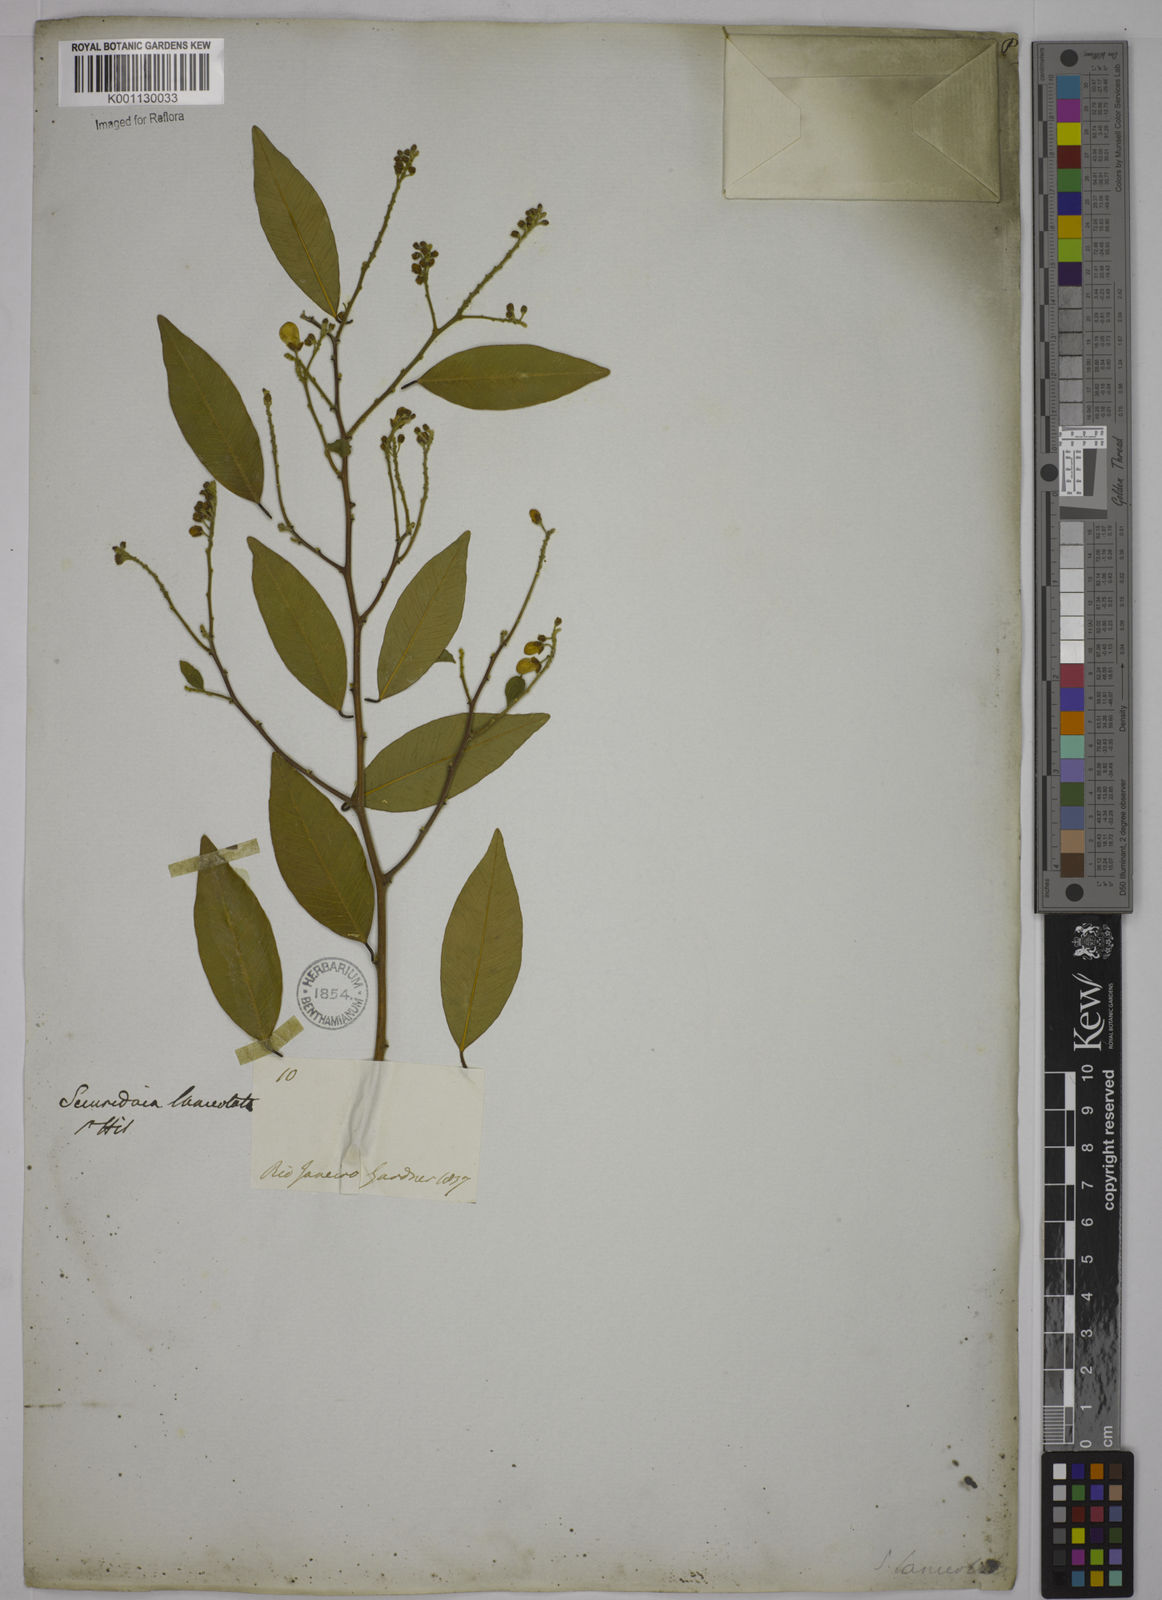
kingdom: Plantae
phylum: Tracheophyta
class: Magnoliopsida
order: Fabales
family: Polygalaceae
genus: Securidaca
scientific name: Securidaca lanceolata
